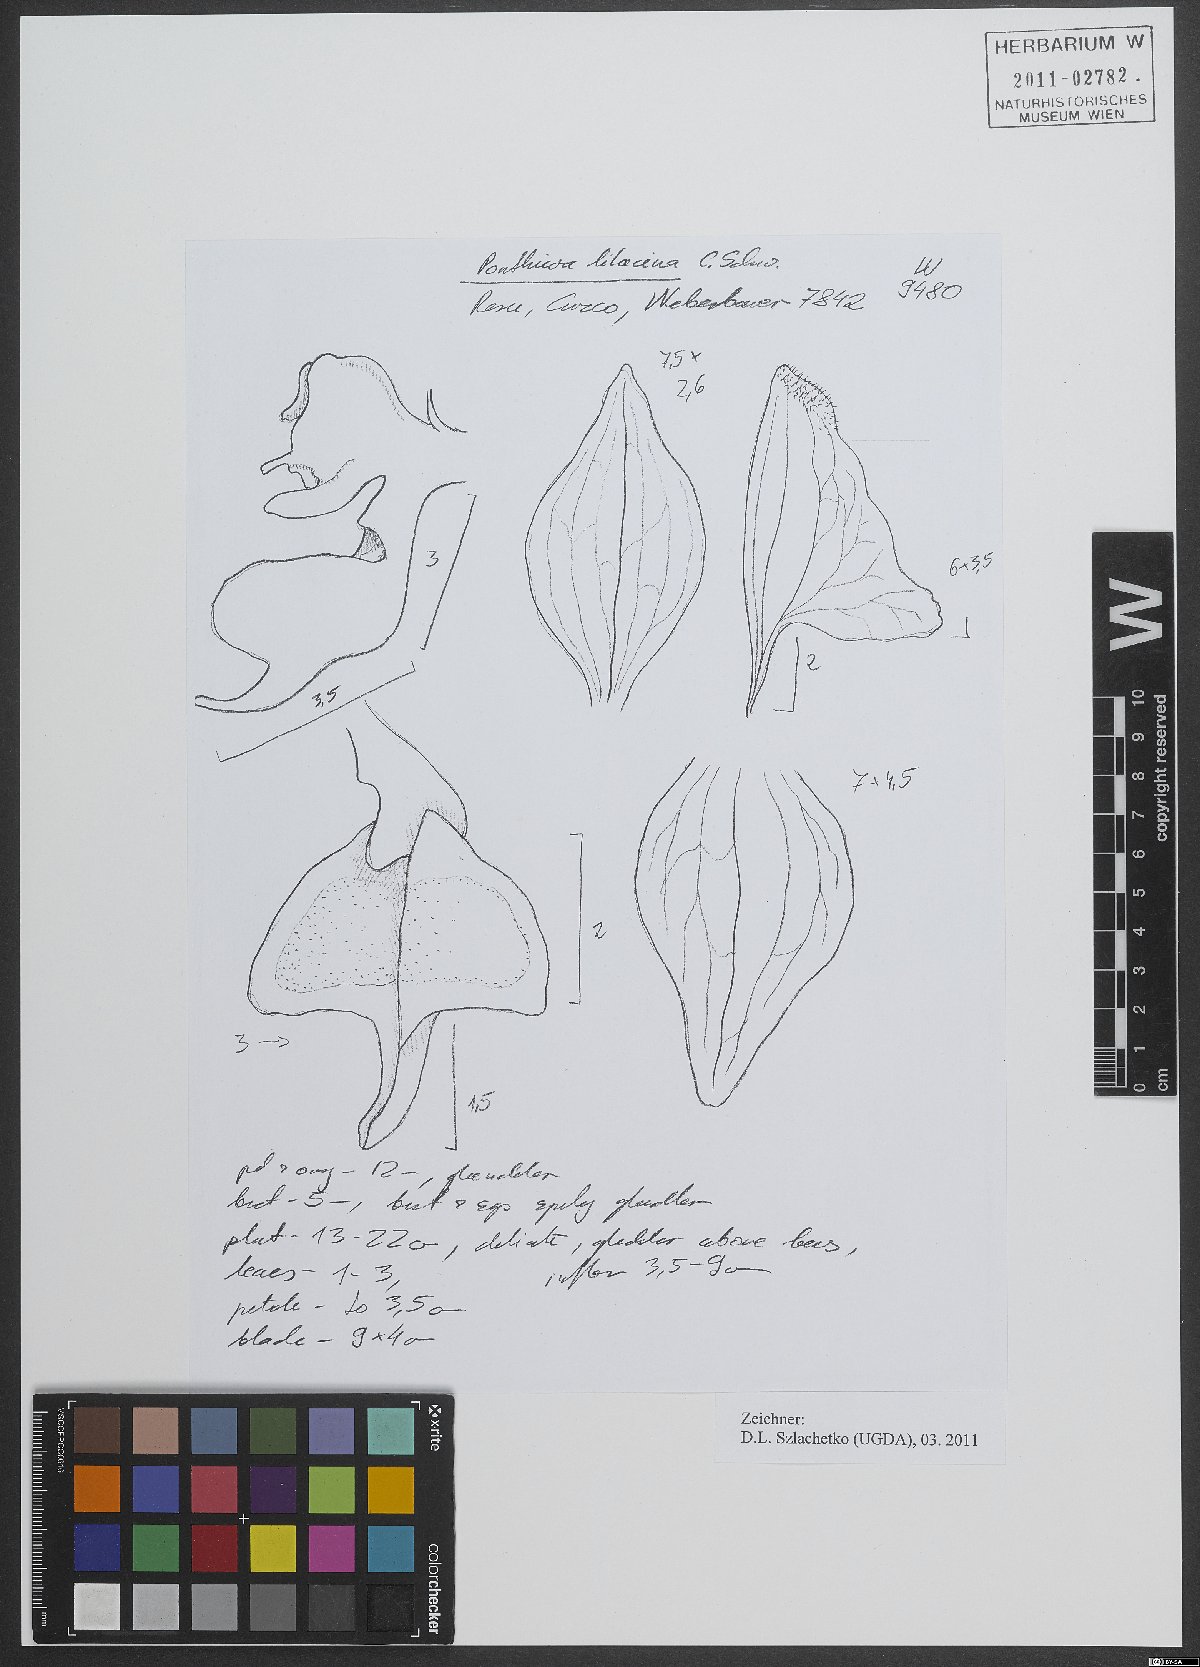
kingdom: Plantae
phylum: Tracheophyta
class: Liliopsida
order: Asparagales
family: Orchidaceae
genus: Ponthieva
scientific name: Ponthieva
